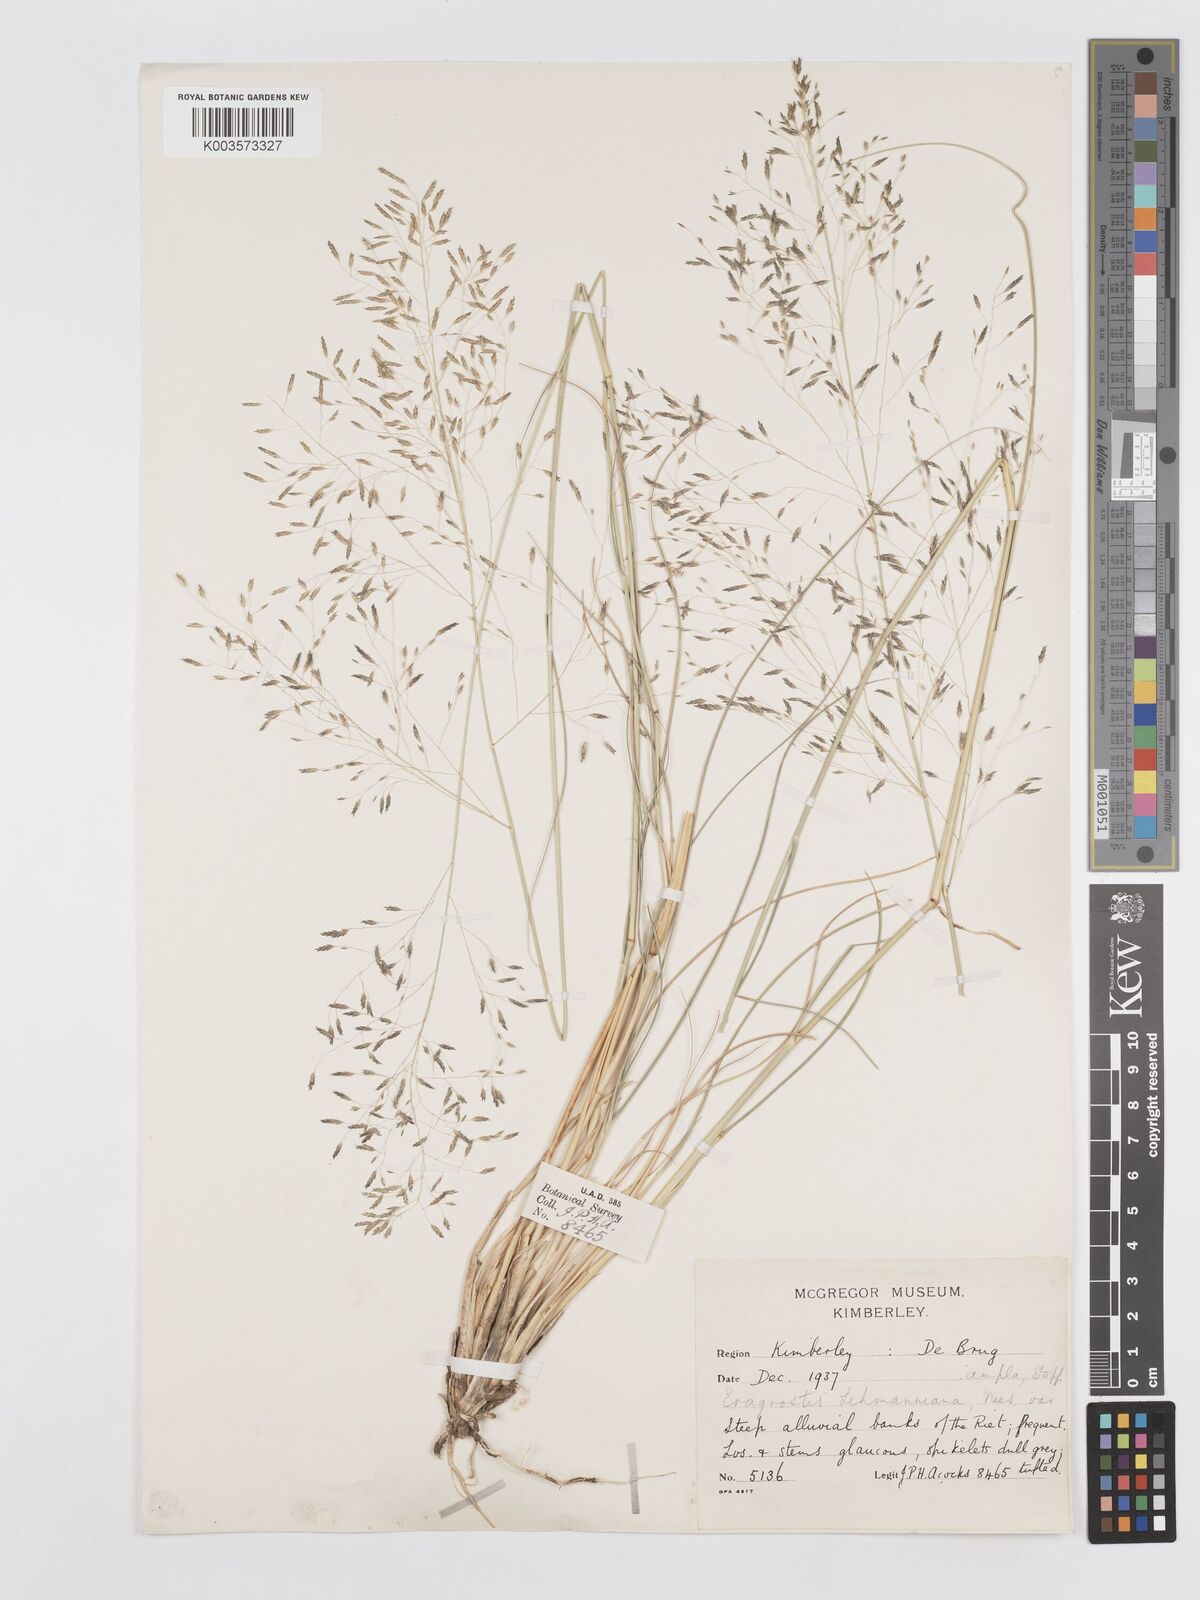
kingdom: Plantae
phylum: Tracheophyta
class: Liliopsida
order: Poales
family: Poaceae
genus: Eragrostis
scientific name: Eragrostis curvula
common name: African love-grass
